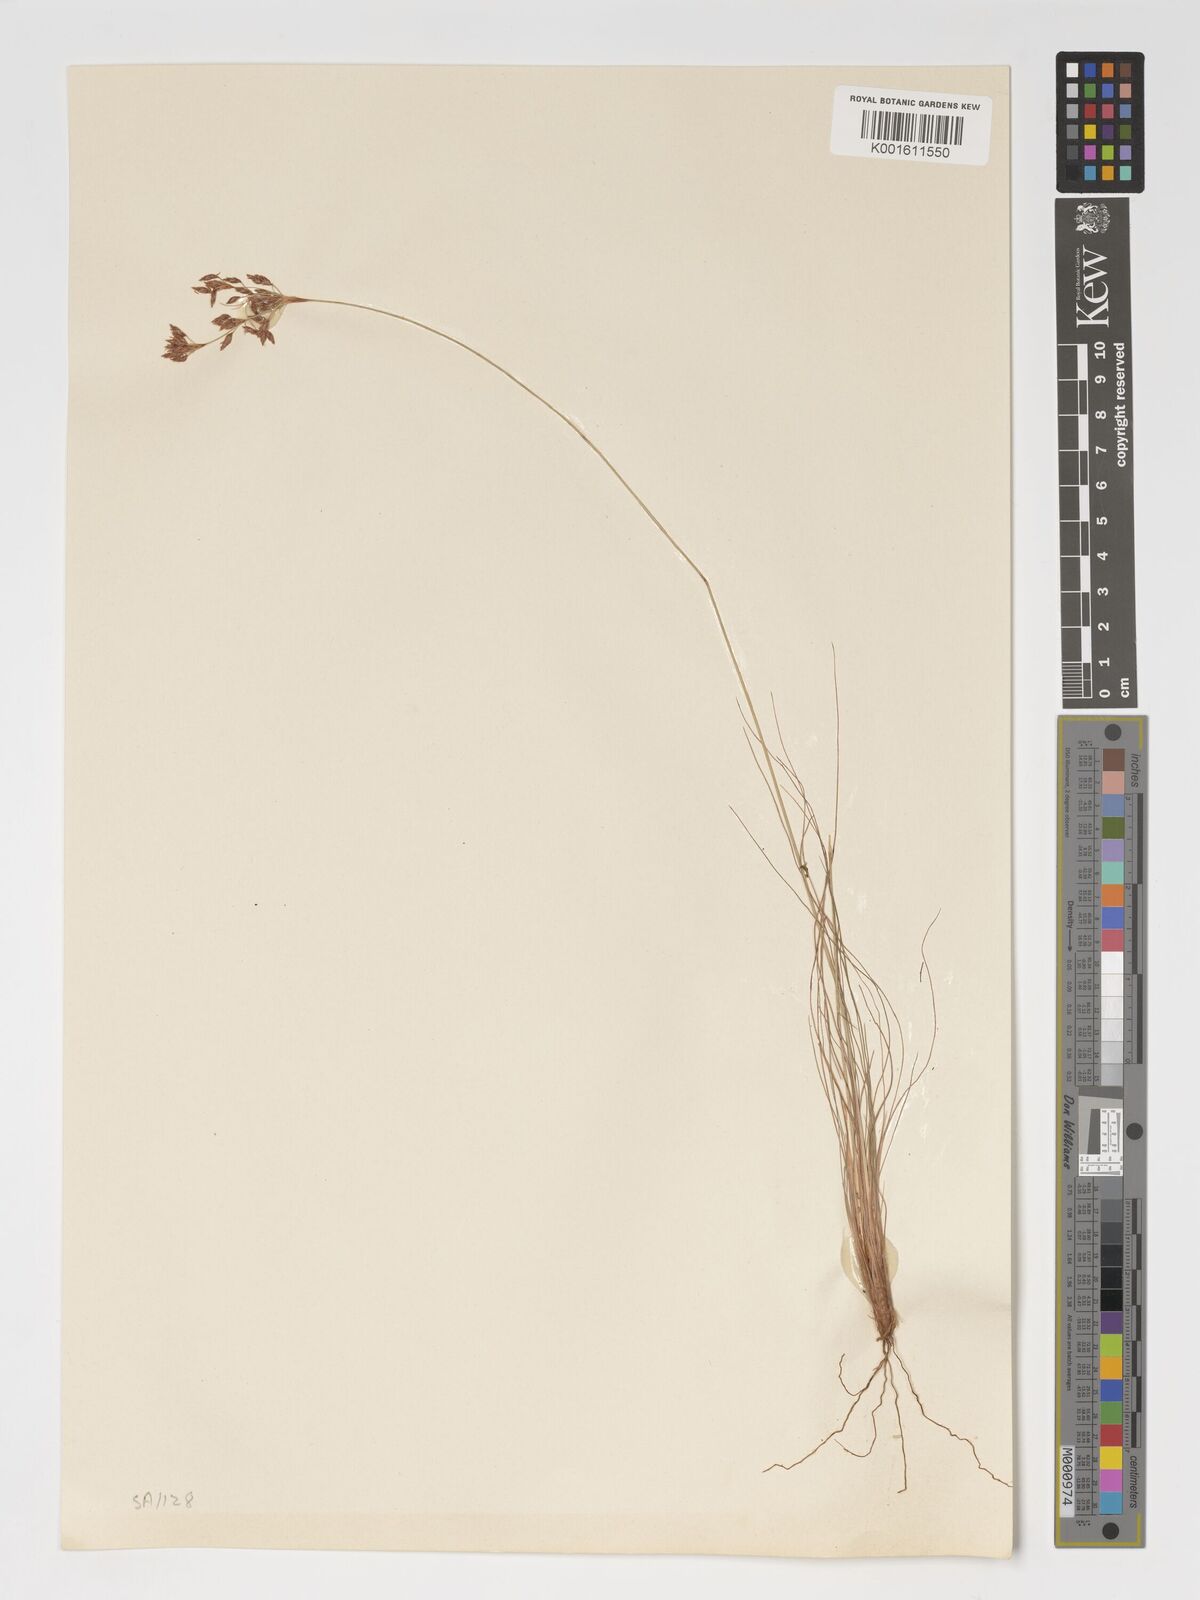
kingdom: Plantae
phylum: Tracheophyta
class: Liliopsida
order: Poales
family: Cyperaceae
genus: Bulbostylis
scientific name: Bulbostylis hispidula
